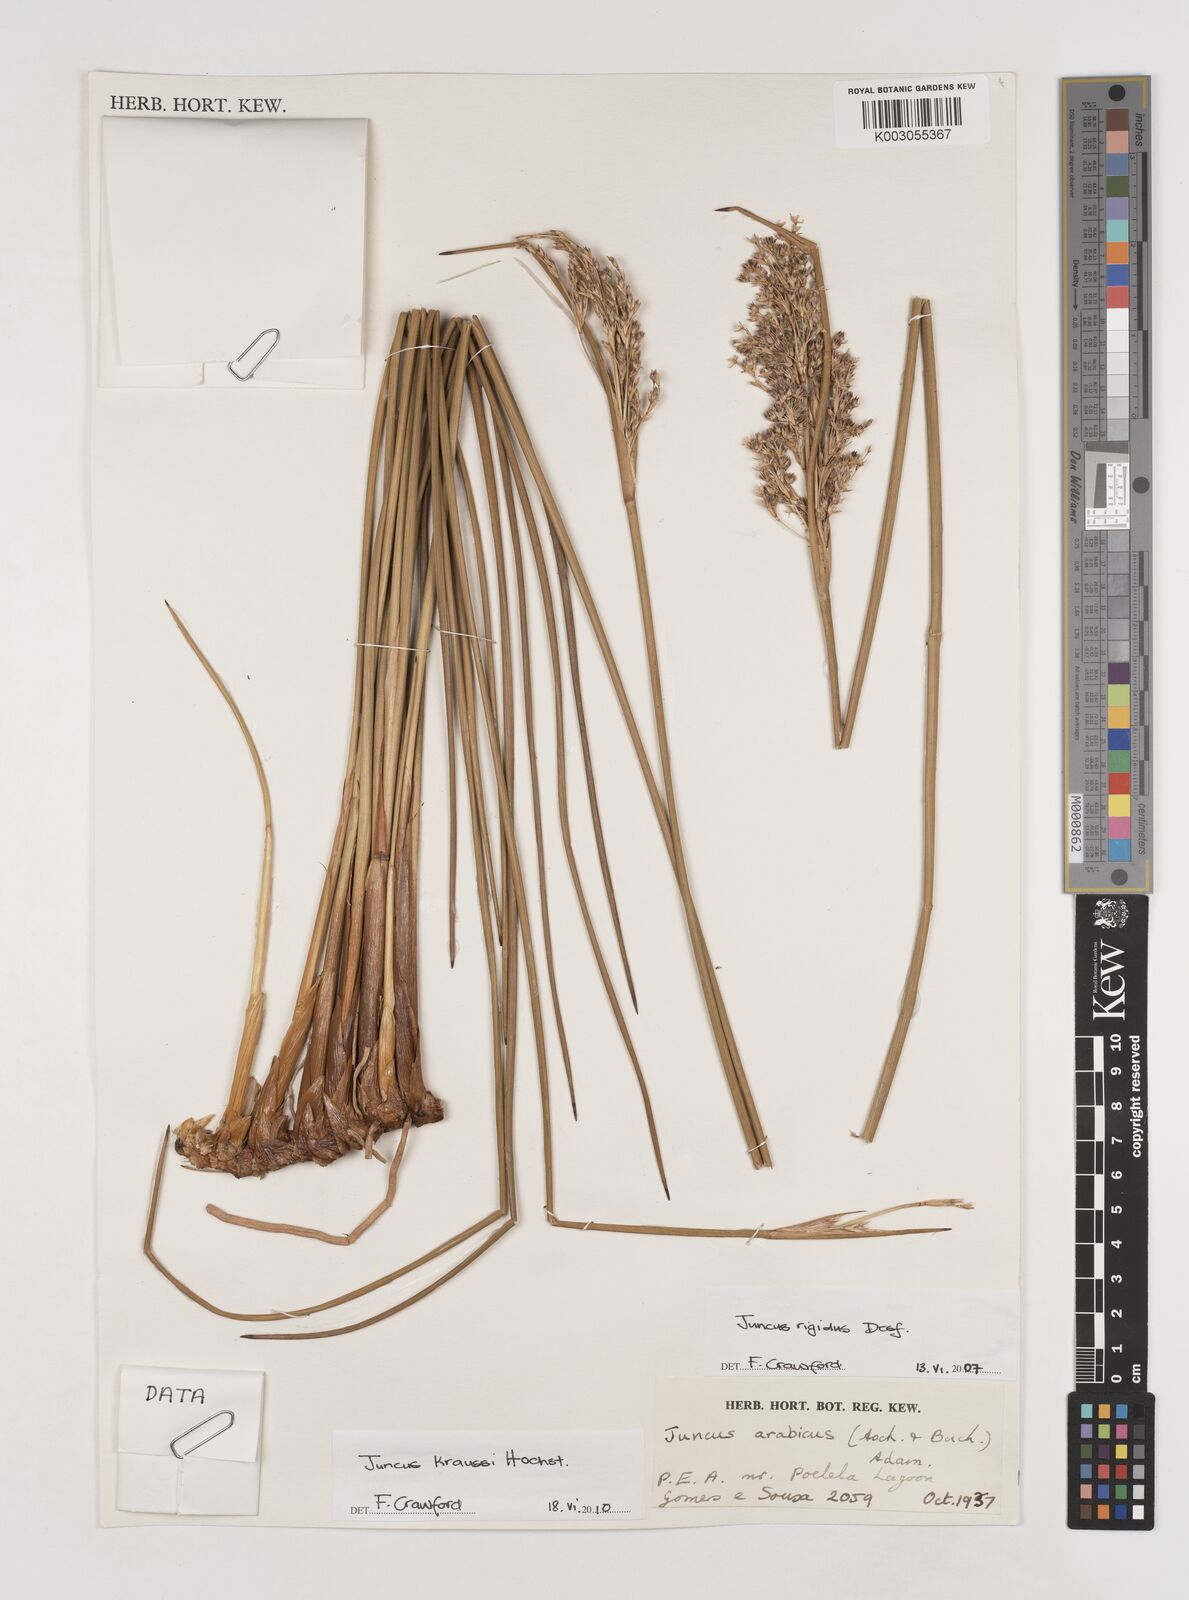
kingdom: Plantae
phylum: Tracheophyta
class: Liliopsida
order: Poales
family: Juncaceae
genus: Juncus
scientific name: Juncus kraussii
